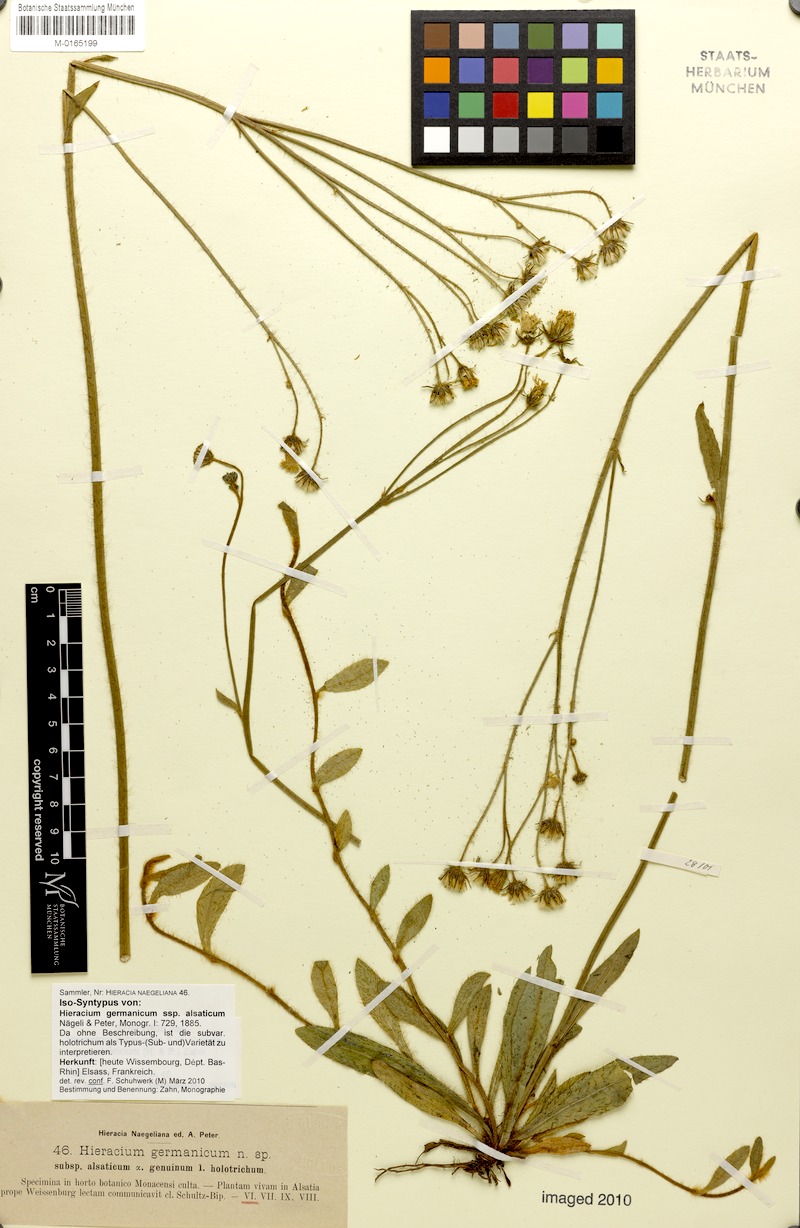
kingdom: Plantae
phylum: Tracheophyta
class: Magnoliopsida
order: Asterales
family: Asteraceae
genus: Pilosella
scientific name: Pilosella fallacina
